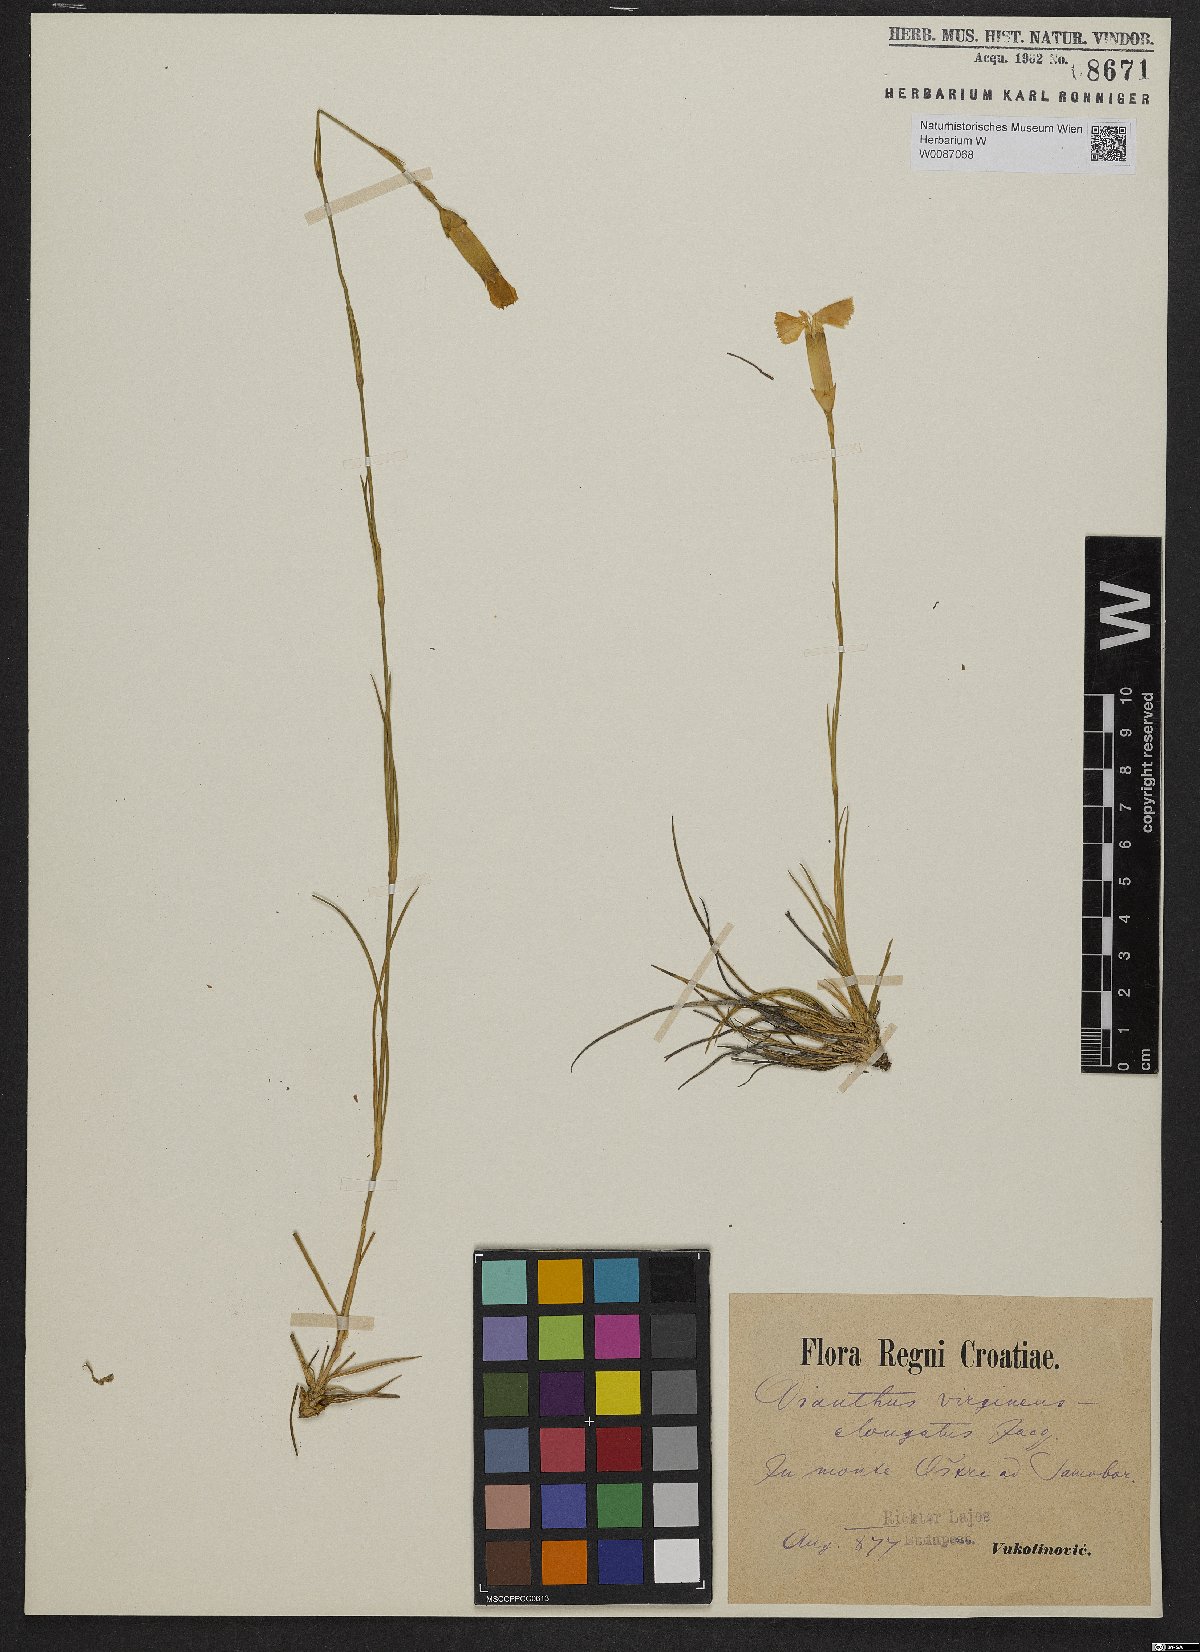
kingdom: Plantae
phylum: Tracheophyta
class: Magnoliopsida
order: Caryophyllales
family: Caryophyllaceae
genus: Dianthus
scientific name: Dianthus virgineus
